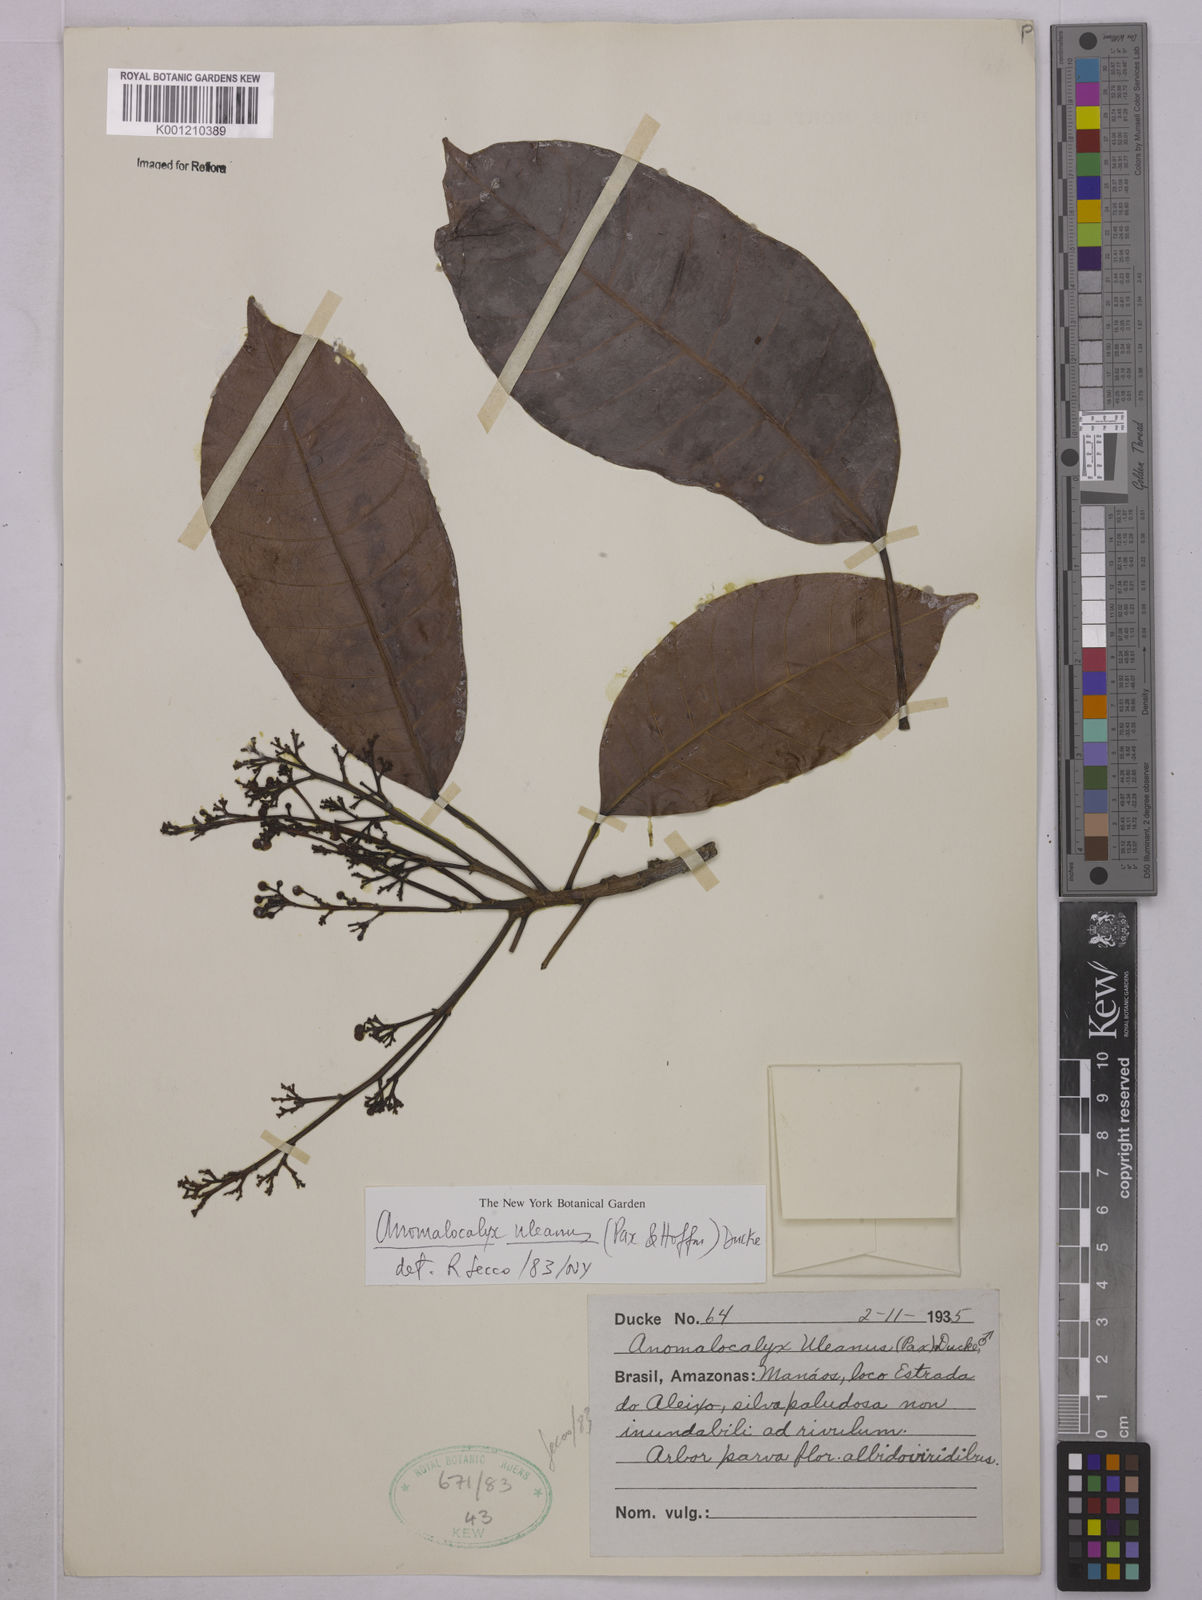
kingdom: Plantae
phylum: Tracheophyta
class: Magnoliopsida
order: Malpighiales
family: Euphorbiaceae
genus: Dodecastigma
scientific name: Dodecastigma uleanum
